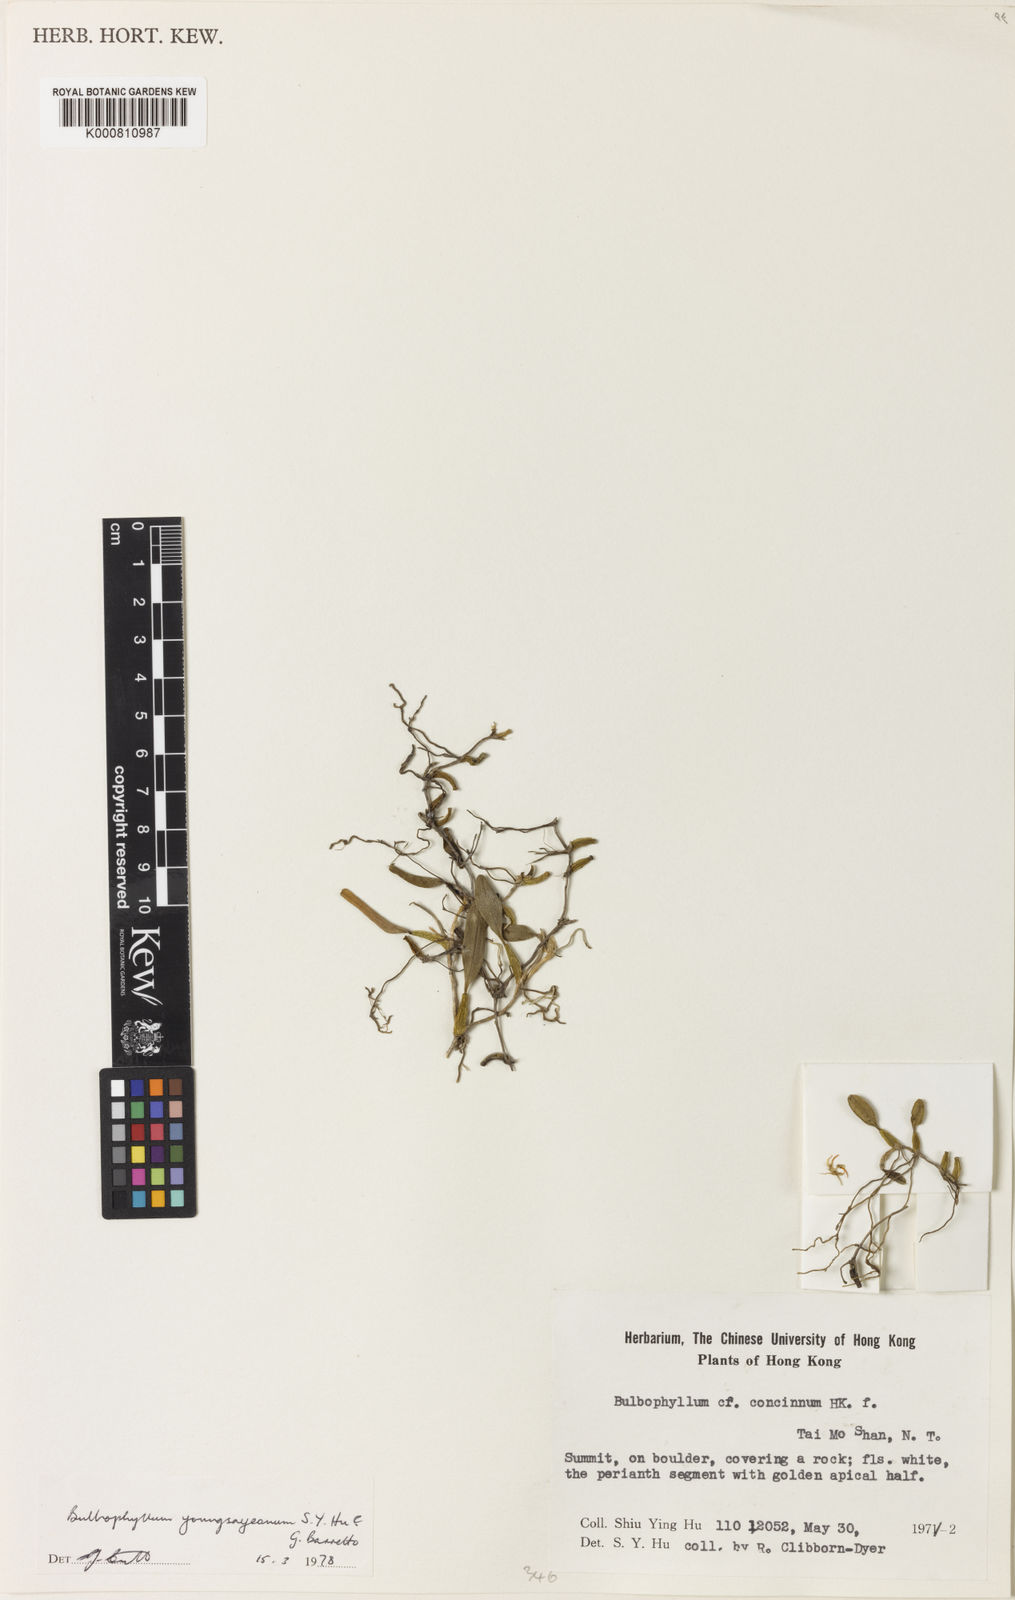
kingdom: Plantae
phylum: Tracheophyta
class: Liliopsida
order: Asparagales
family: Orchidaceae
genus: Bulbophyllum
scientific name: Bulbophyllum stenobulbon
